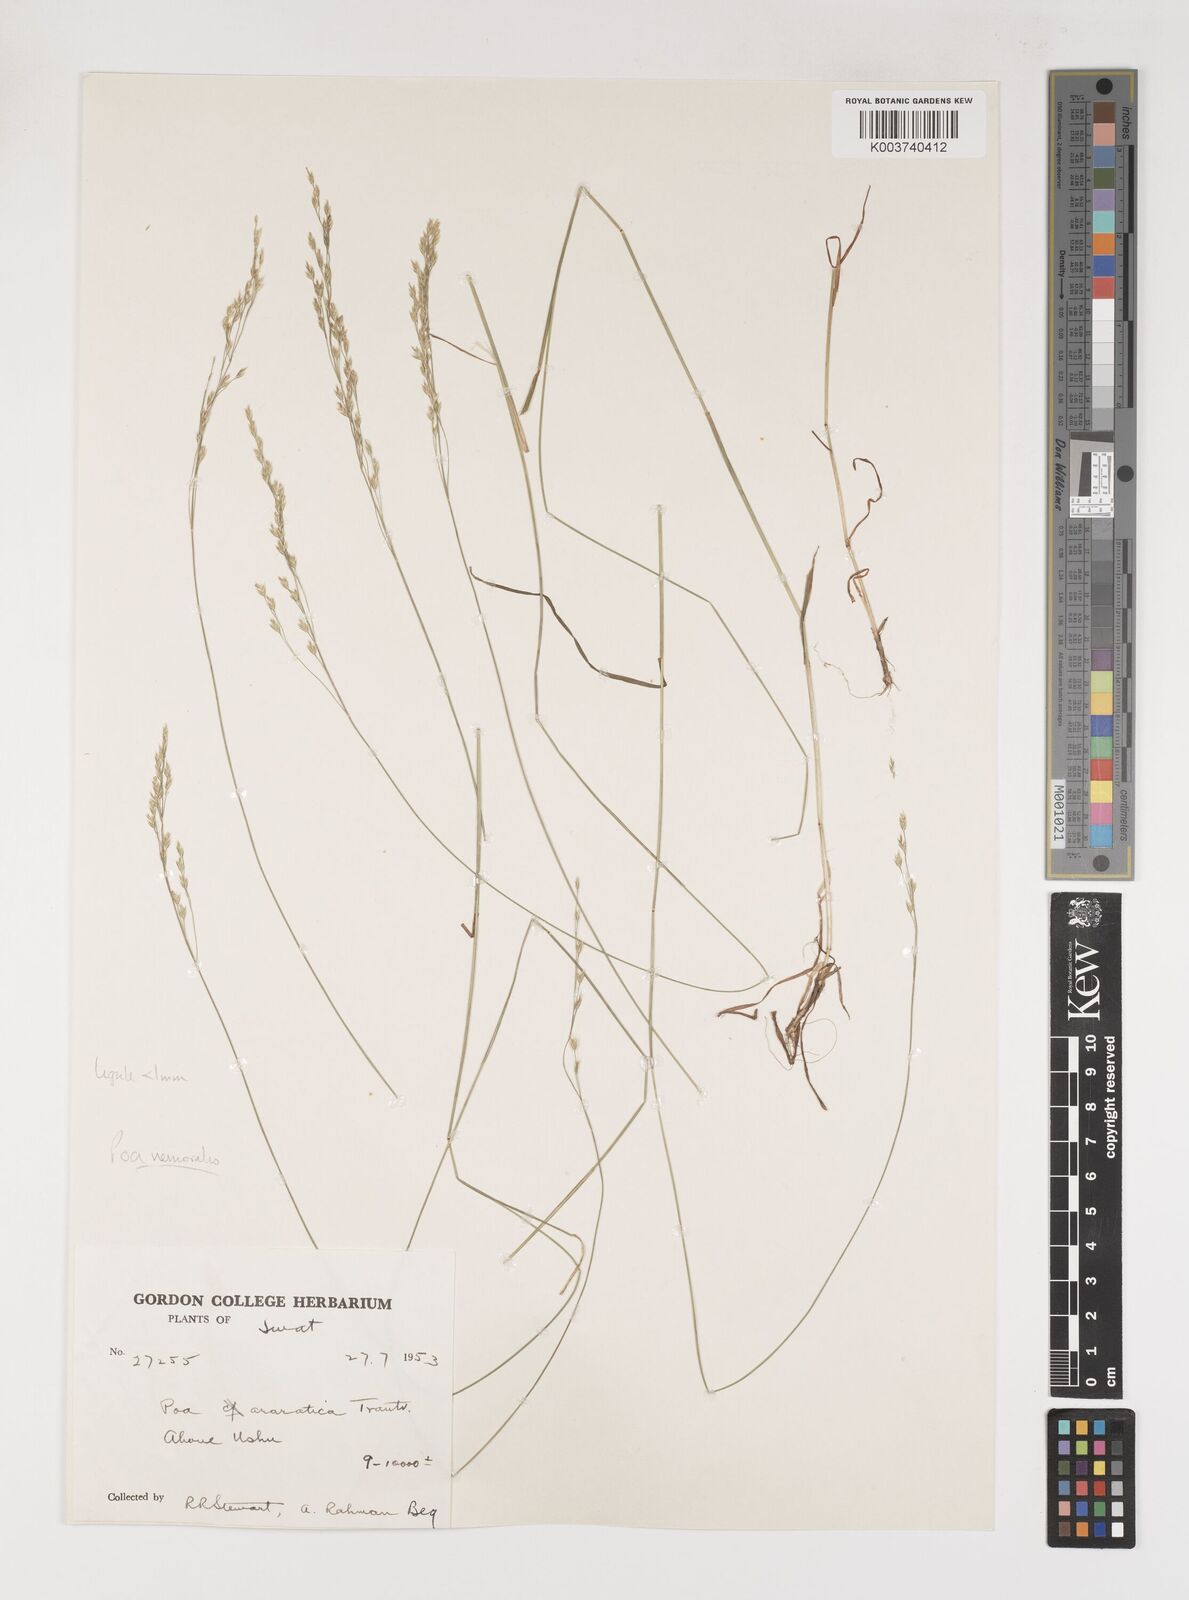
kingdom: Plantae
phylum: Tracheophyta
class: Liliopsida
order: Poales
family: Poaceae
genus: Poa
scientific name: Poa nemoralis
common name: Wood bluegrass
